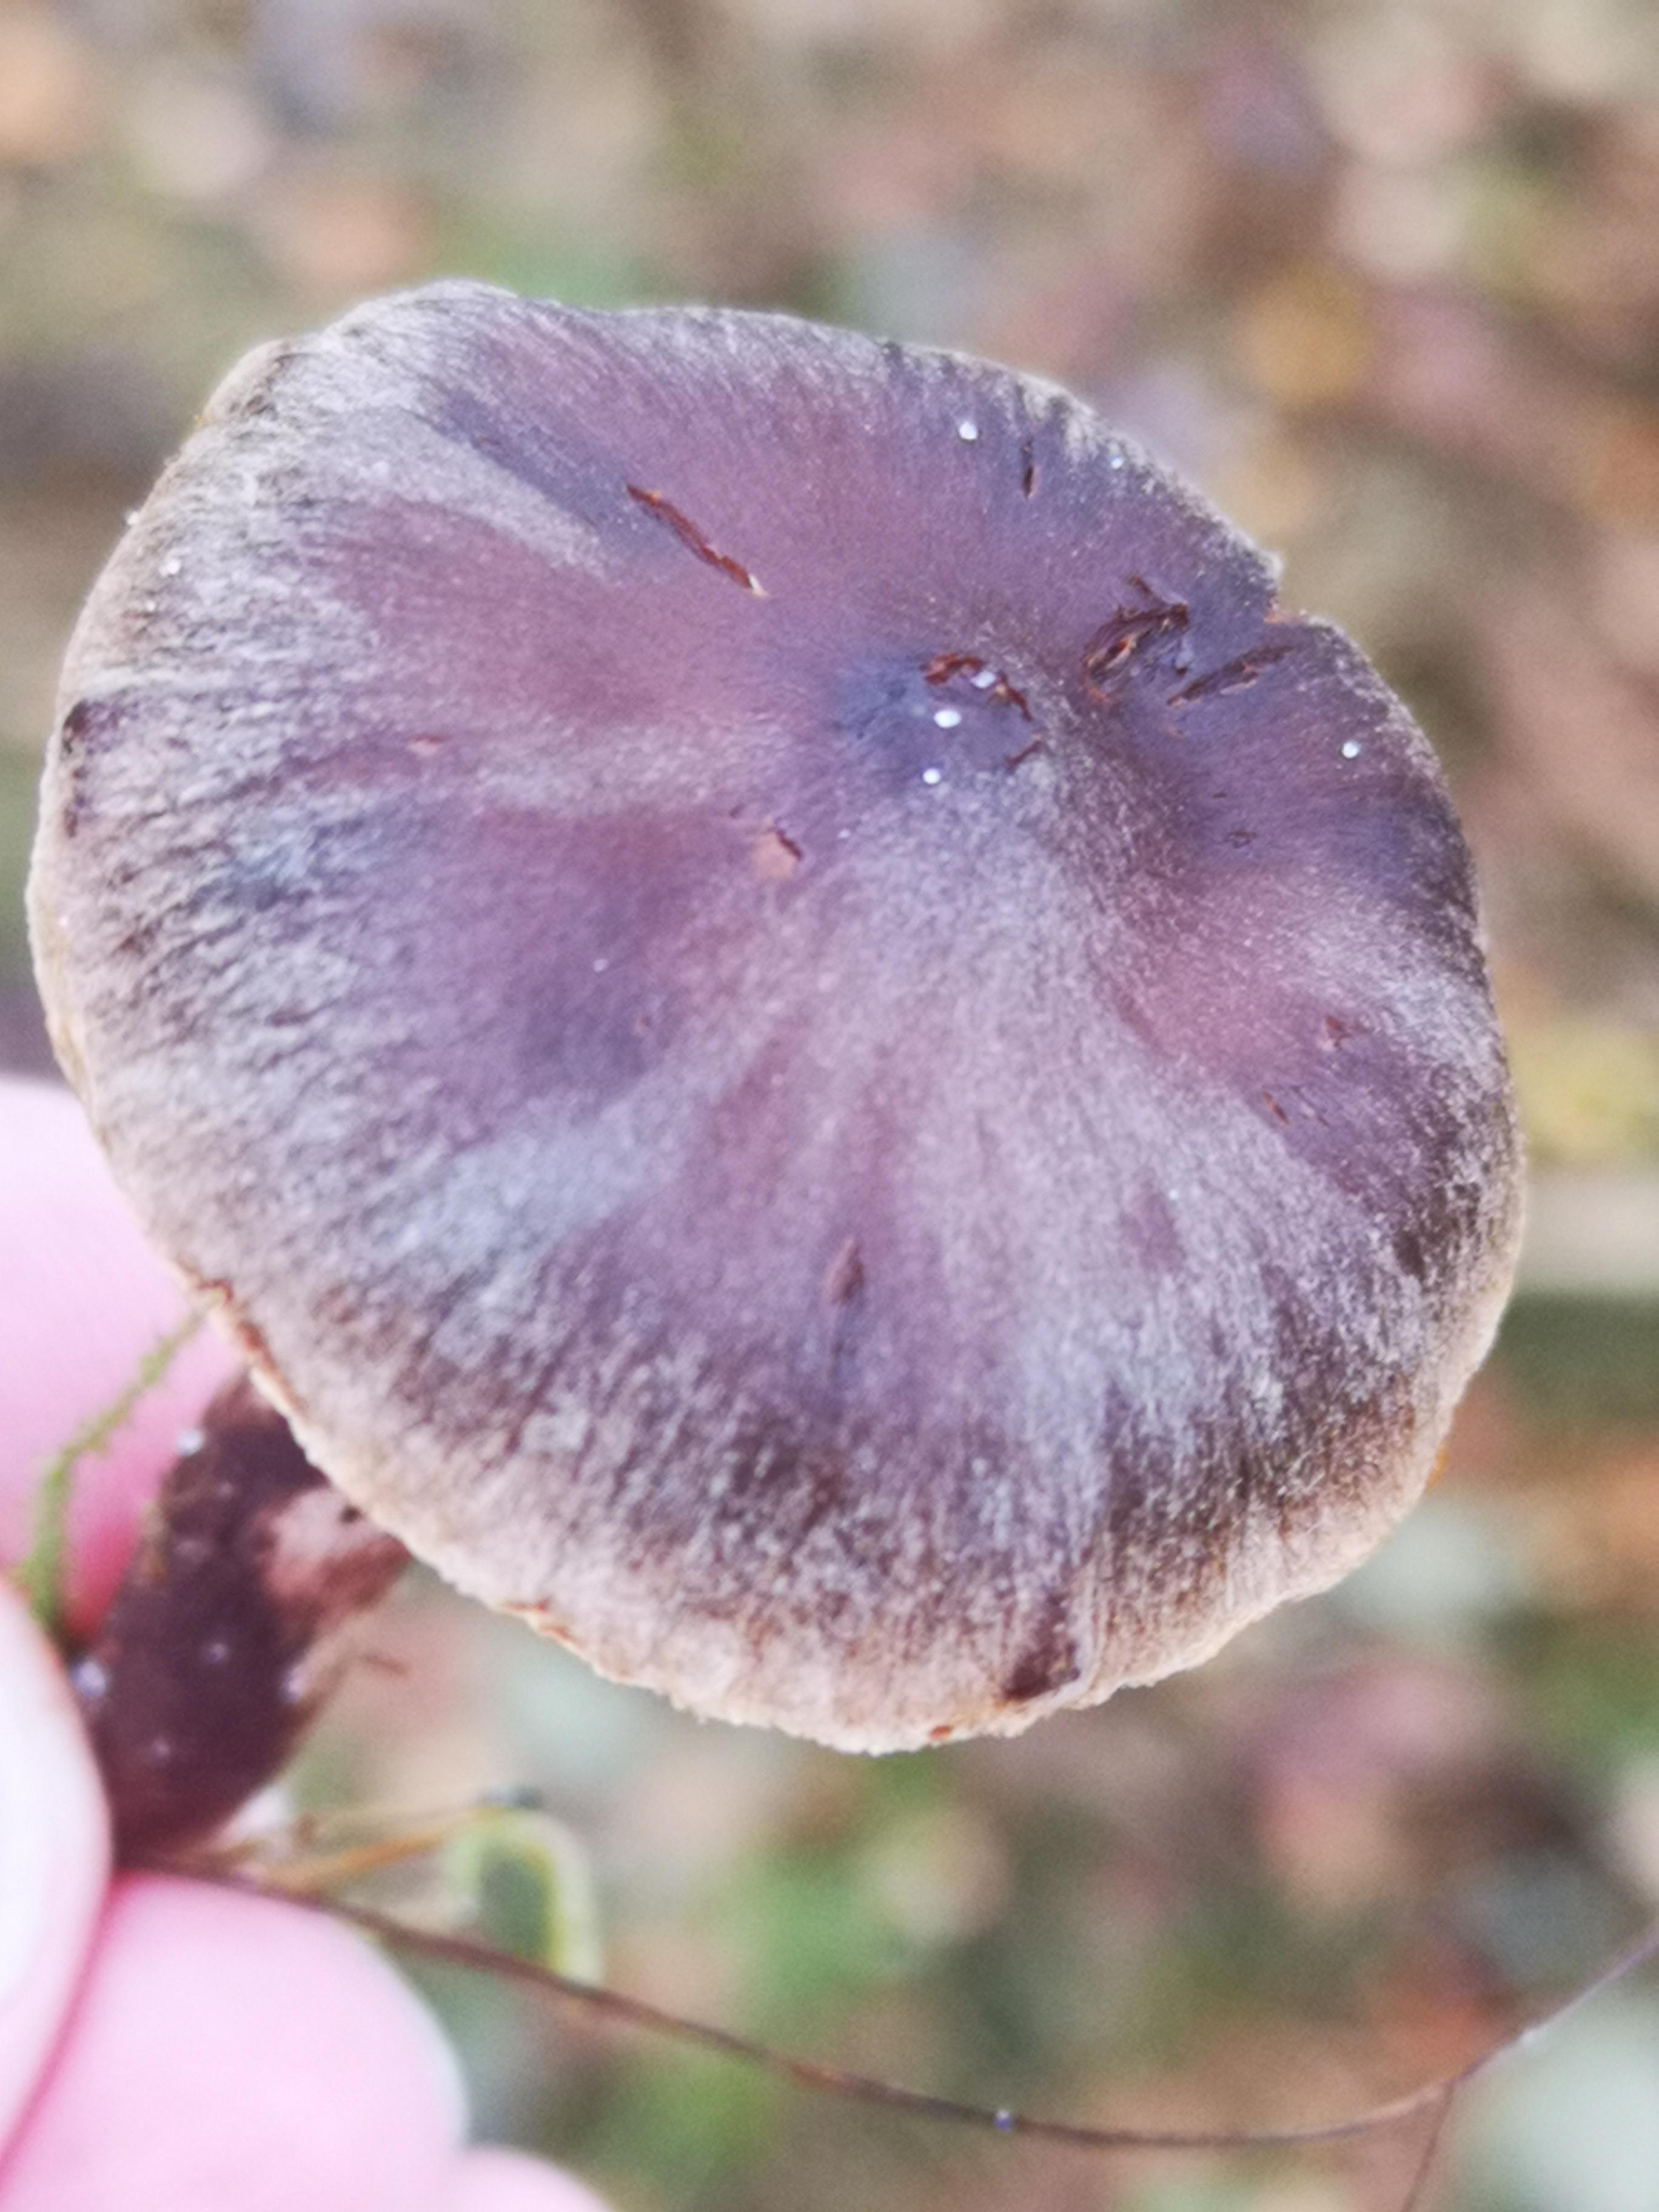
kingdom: Fungi
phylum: Basidiomycota
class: Agaricomycetes
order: Agaricales
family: Cortinariaceae
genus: Cortinarius
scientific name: Cortinarius
